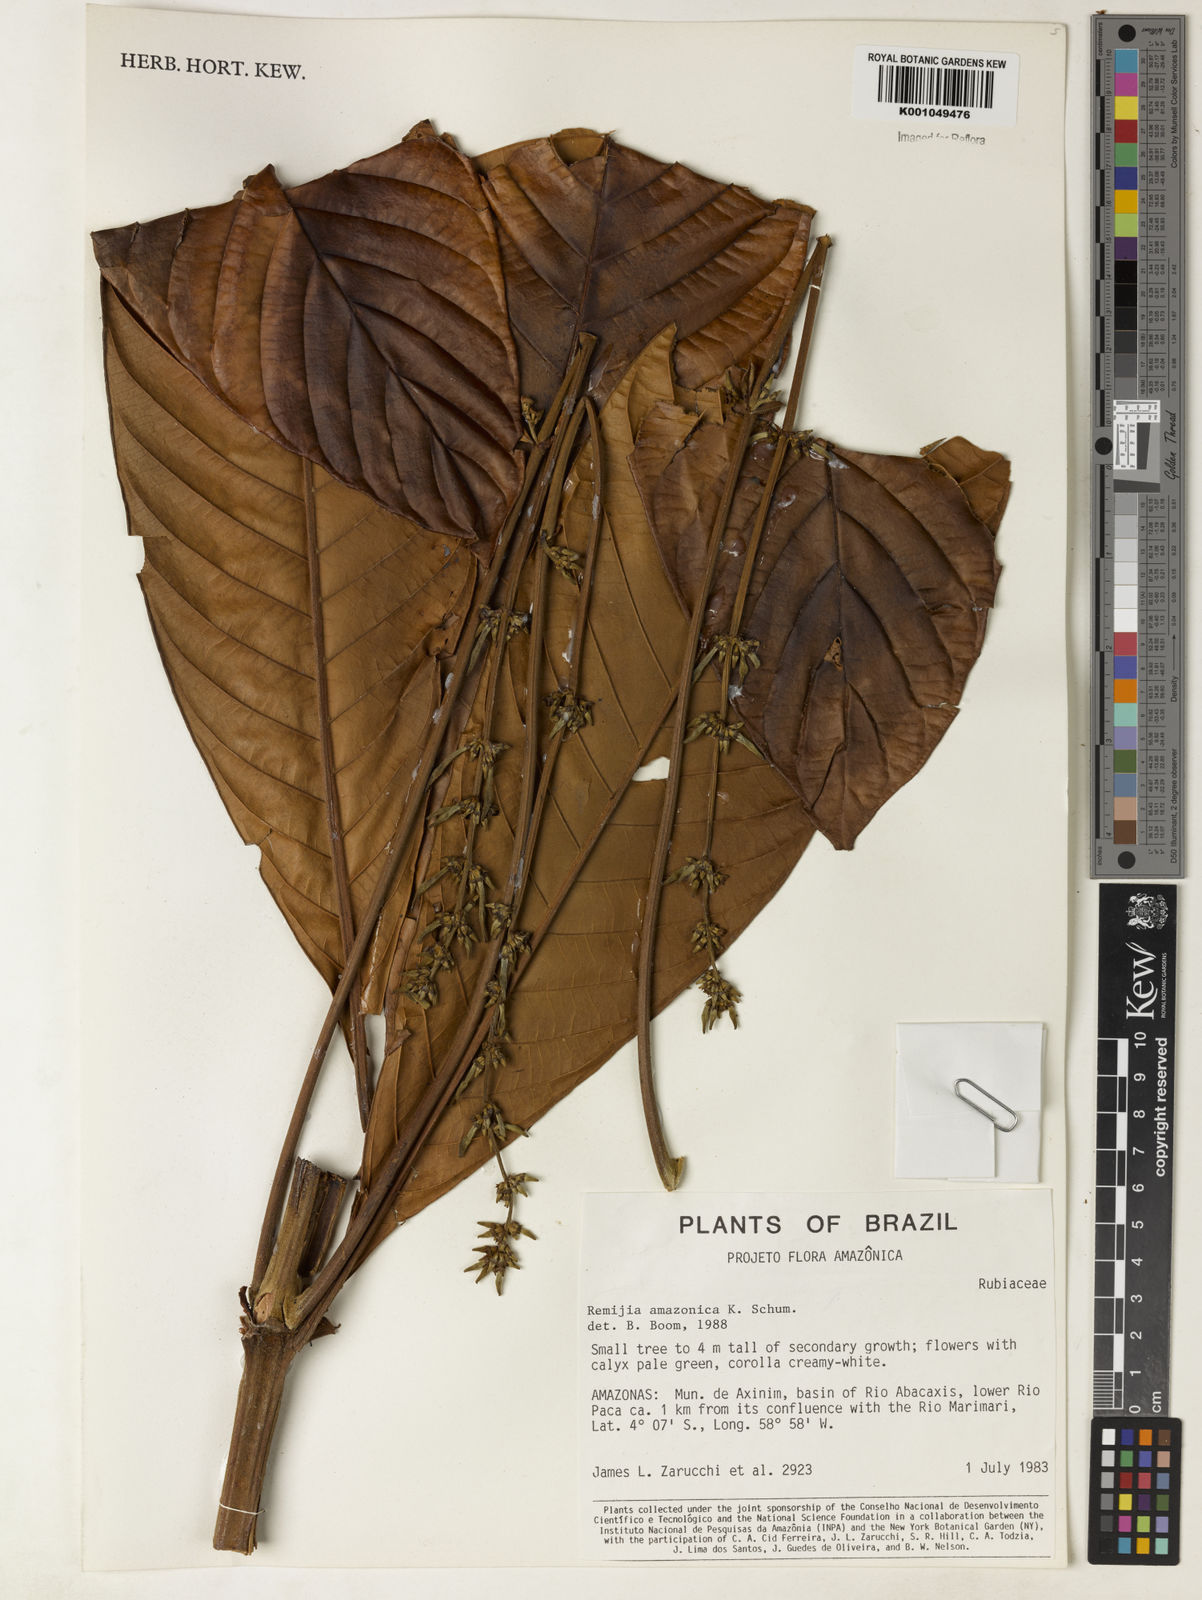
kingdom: Plantae
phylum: Tracheophyta
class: Magnoliopsida
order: Gentianales
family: Rubiaceae
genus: Remijia
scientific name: Remijia amazonica
